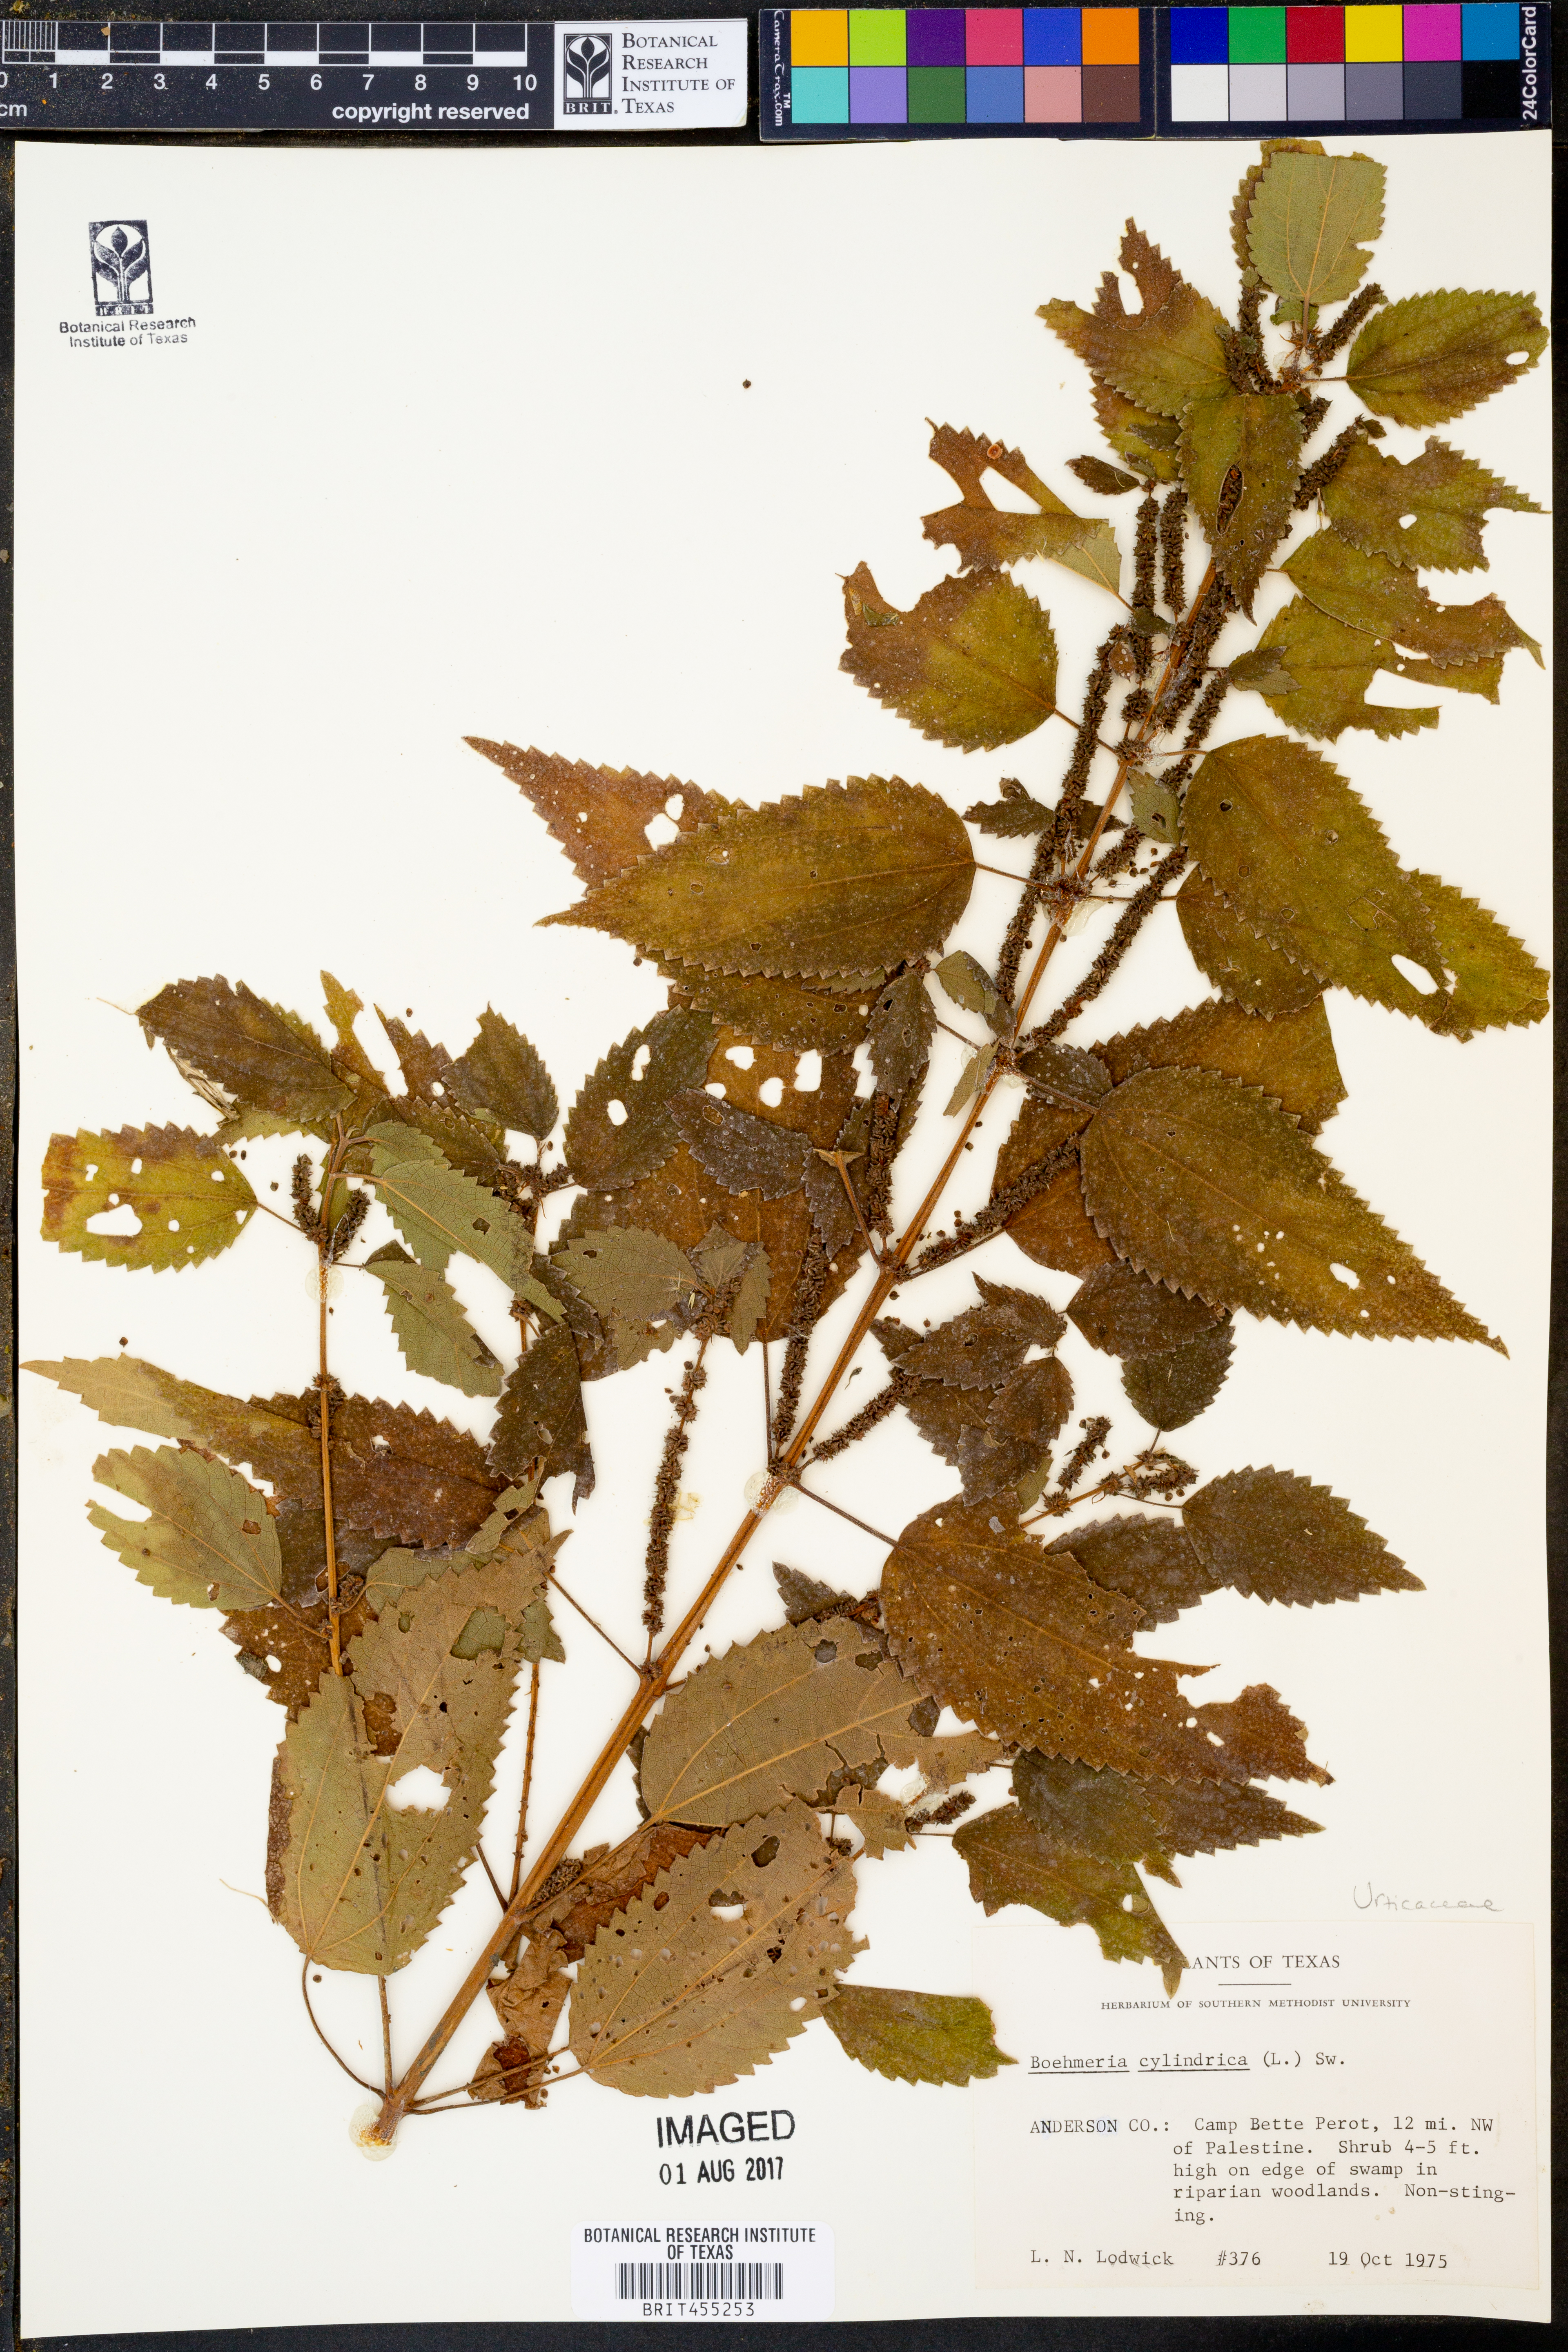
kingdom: Plantae
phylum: Tracheophyta
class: Magnoliopsida
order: Rosales
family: Urticaceae
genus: Boehmeria
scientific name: Boehmeria cylindrica
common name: Bog-hemp
